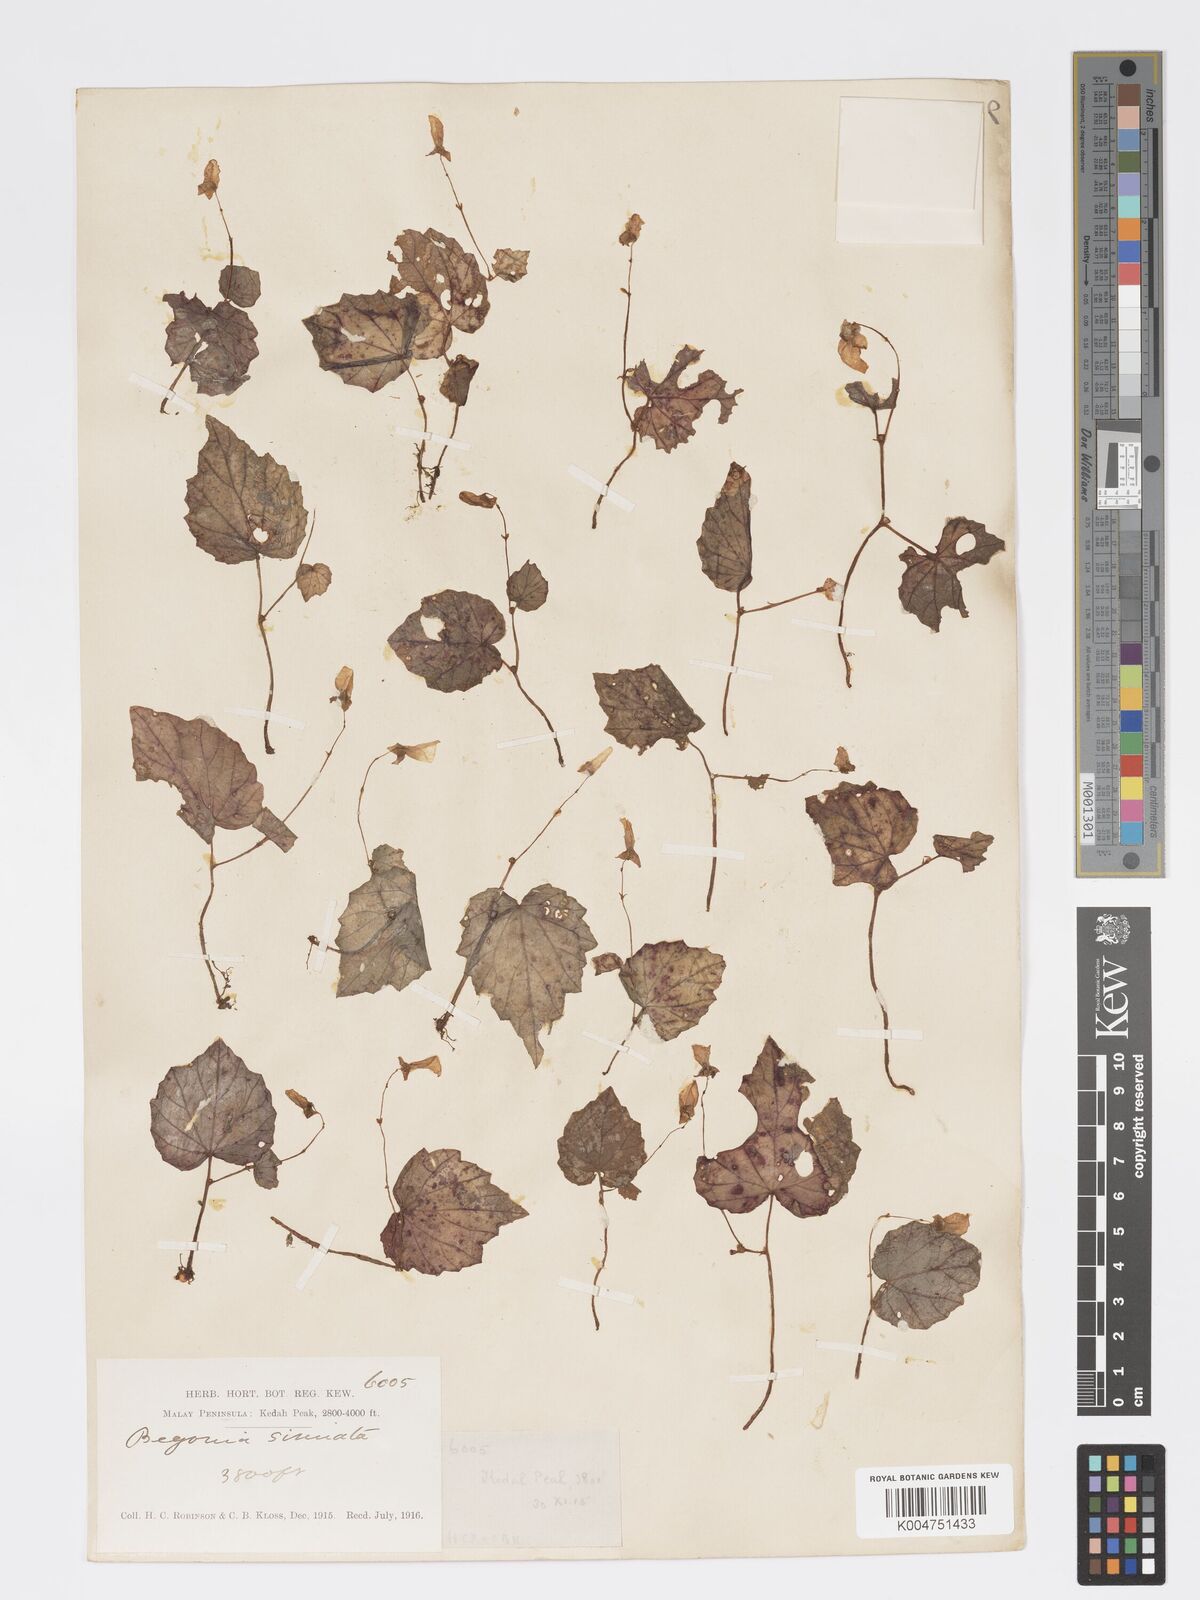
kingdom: Plantae
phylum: Tracheophyta
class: Magnoliopsida
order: Cucurbitales
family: Begoniaceae
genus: Begonia
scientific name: Begonia
